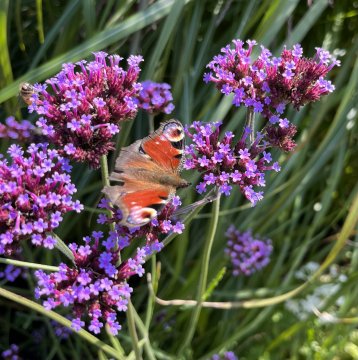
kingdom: Animalia
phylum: Arthropoda
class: Insecta
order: Lepidoptera
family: Nymphalidae
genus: Aglais
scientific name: Aglais io
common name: European Peacock
